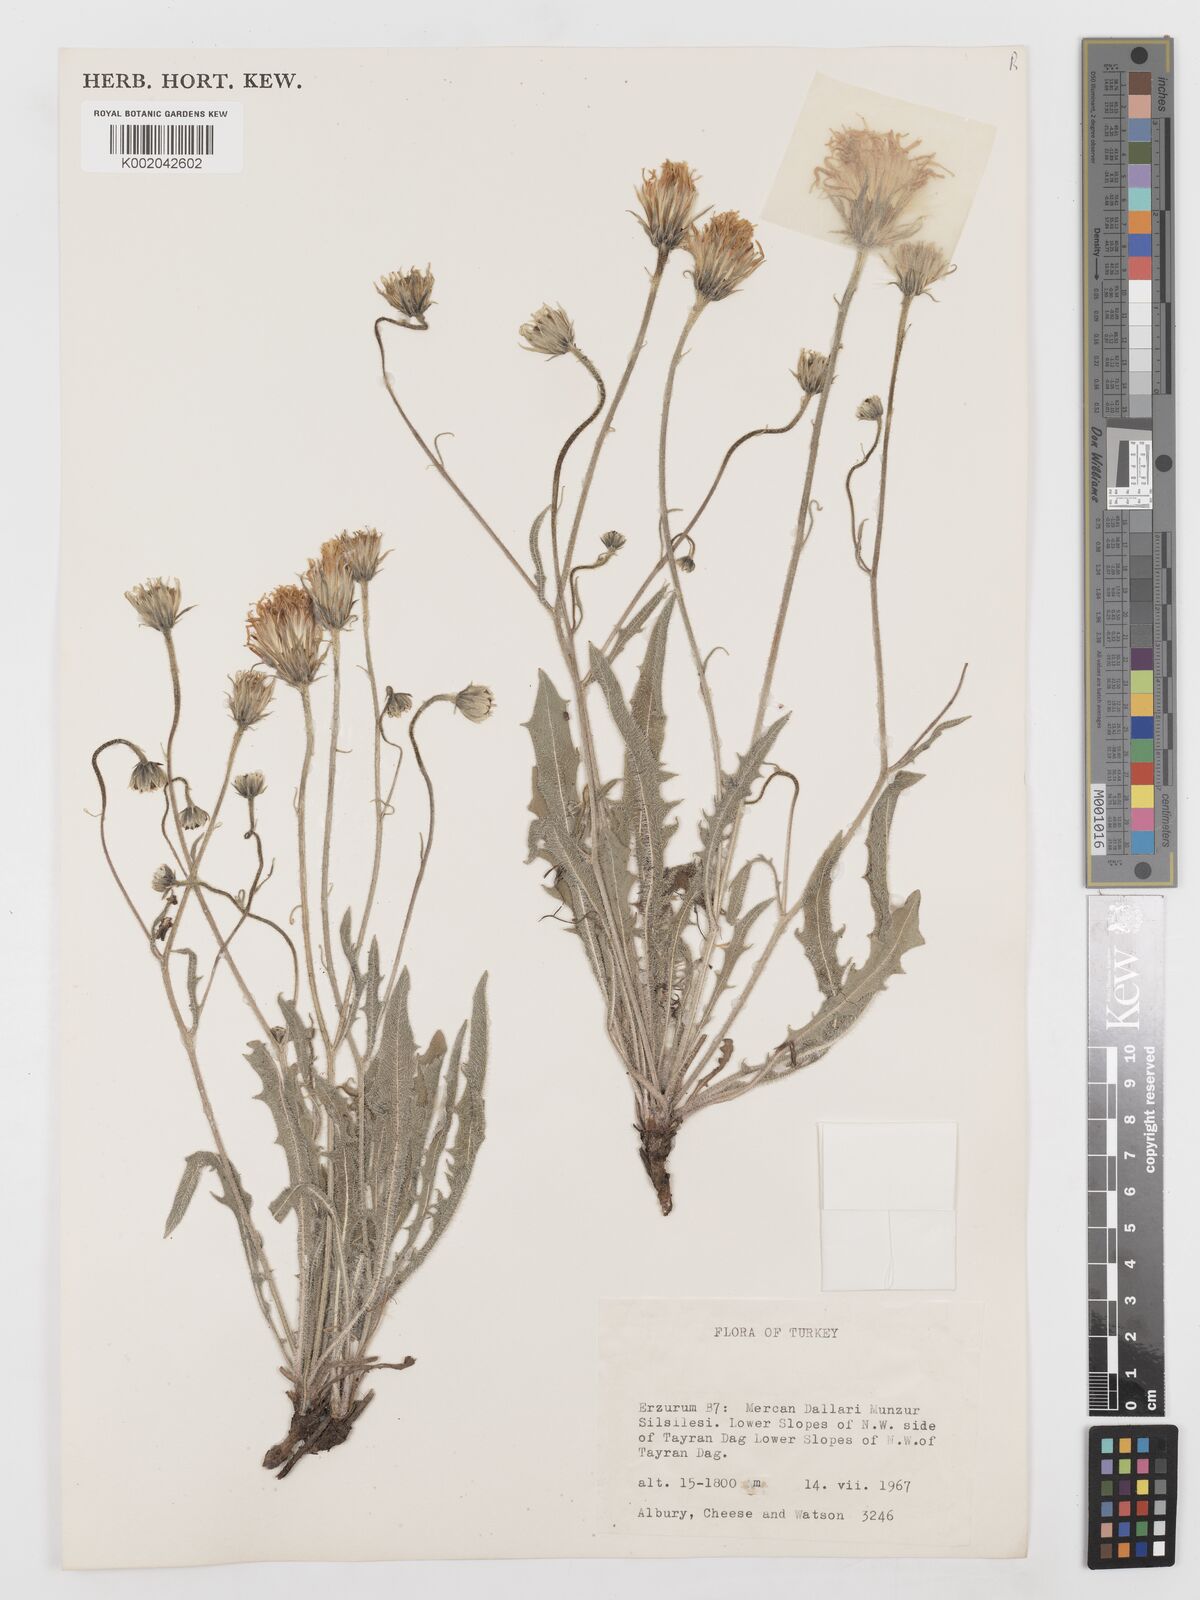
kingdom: Plantae
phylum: Tracheophyta
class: Magnoliopsida
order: Asterales
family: Asteraceae
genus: Leontodon
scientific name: Leontodon
